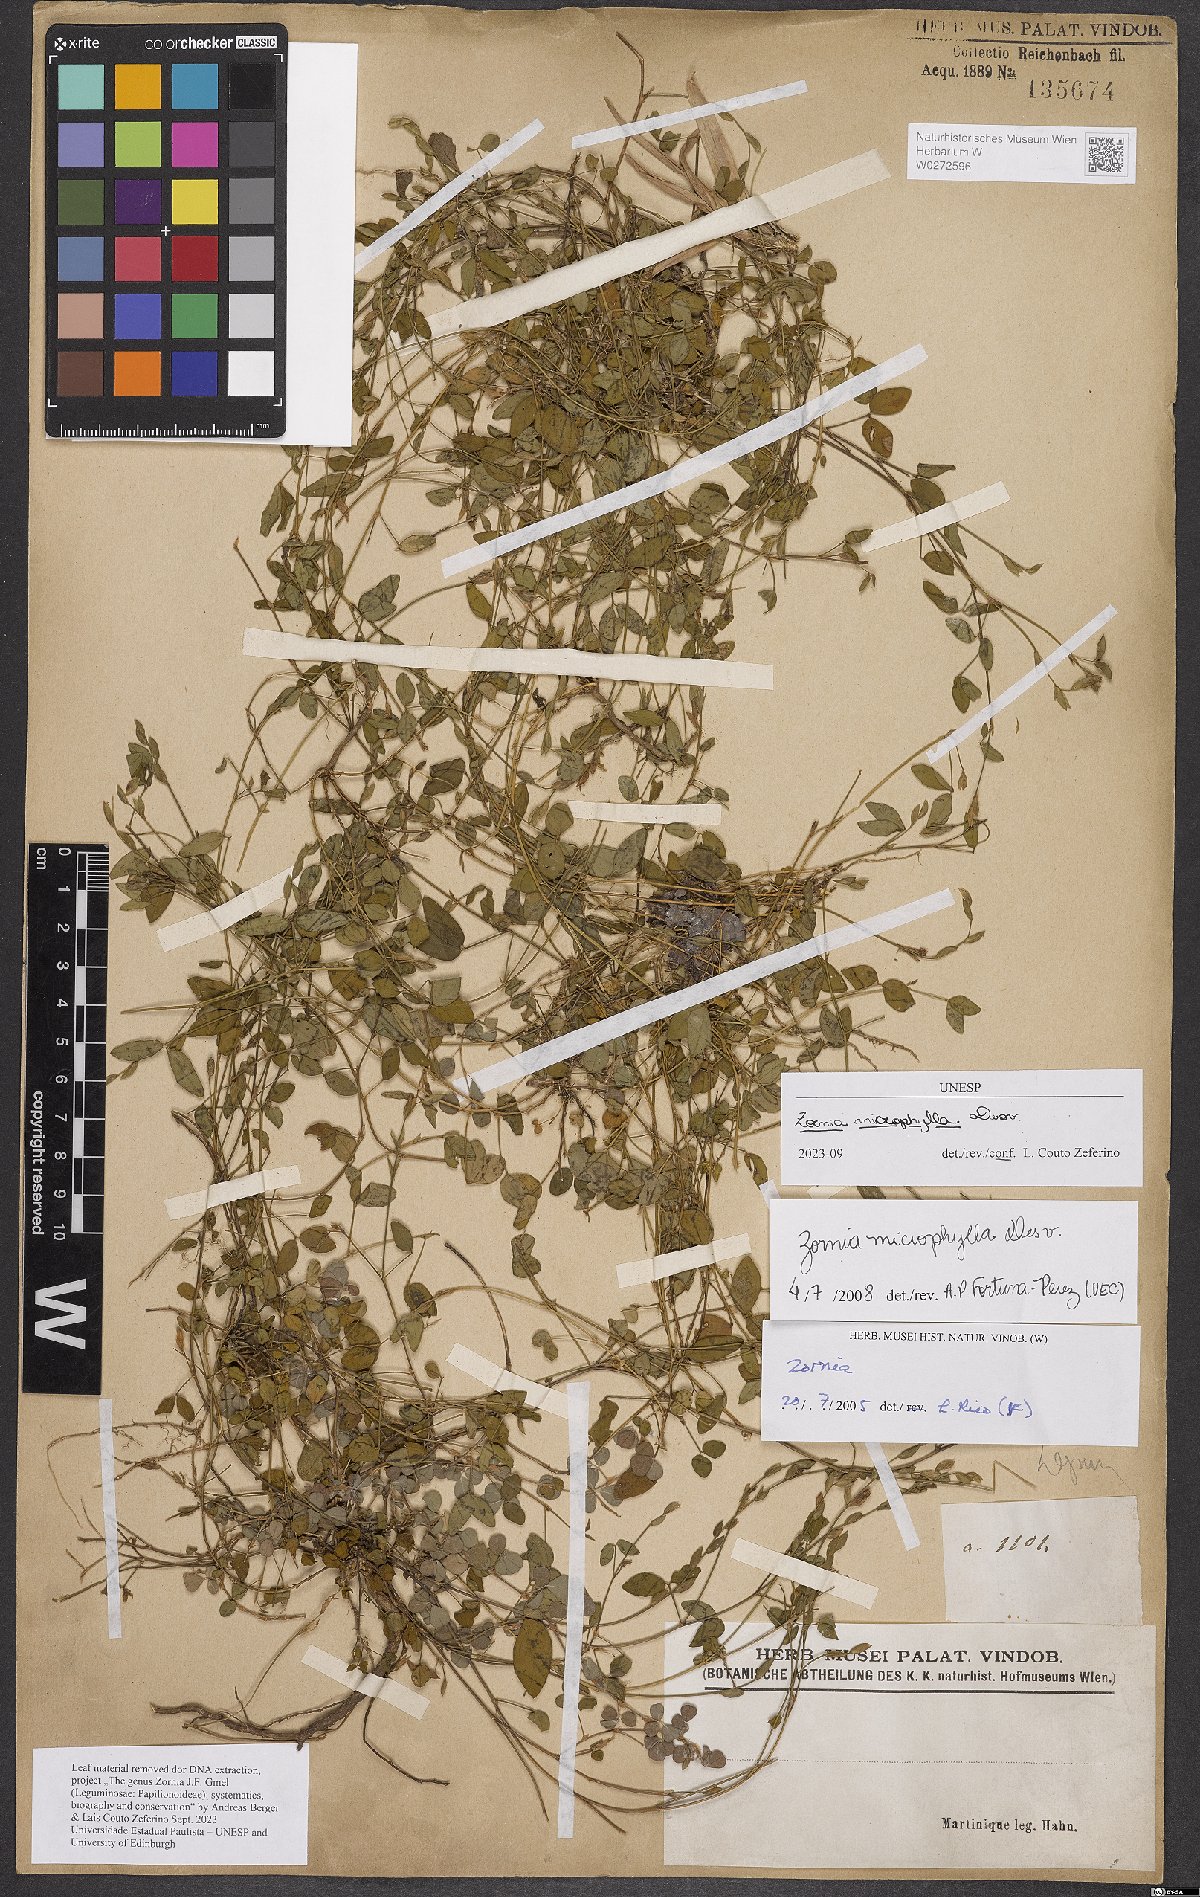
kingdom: Plantae
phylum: Tracheophyta
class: Magnoliopsida
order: Fabales
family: Fabaceae
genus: Zornia
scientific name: Zornia microphylla
